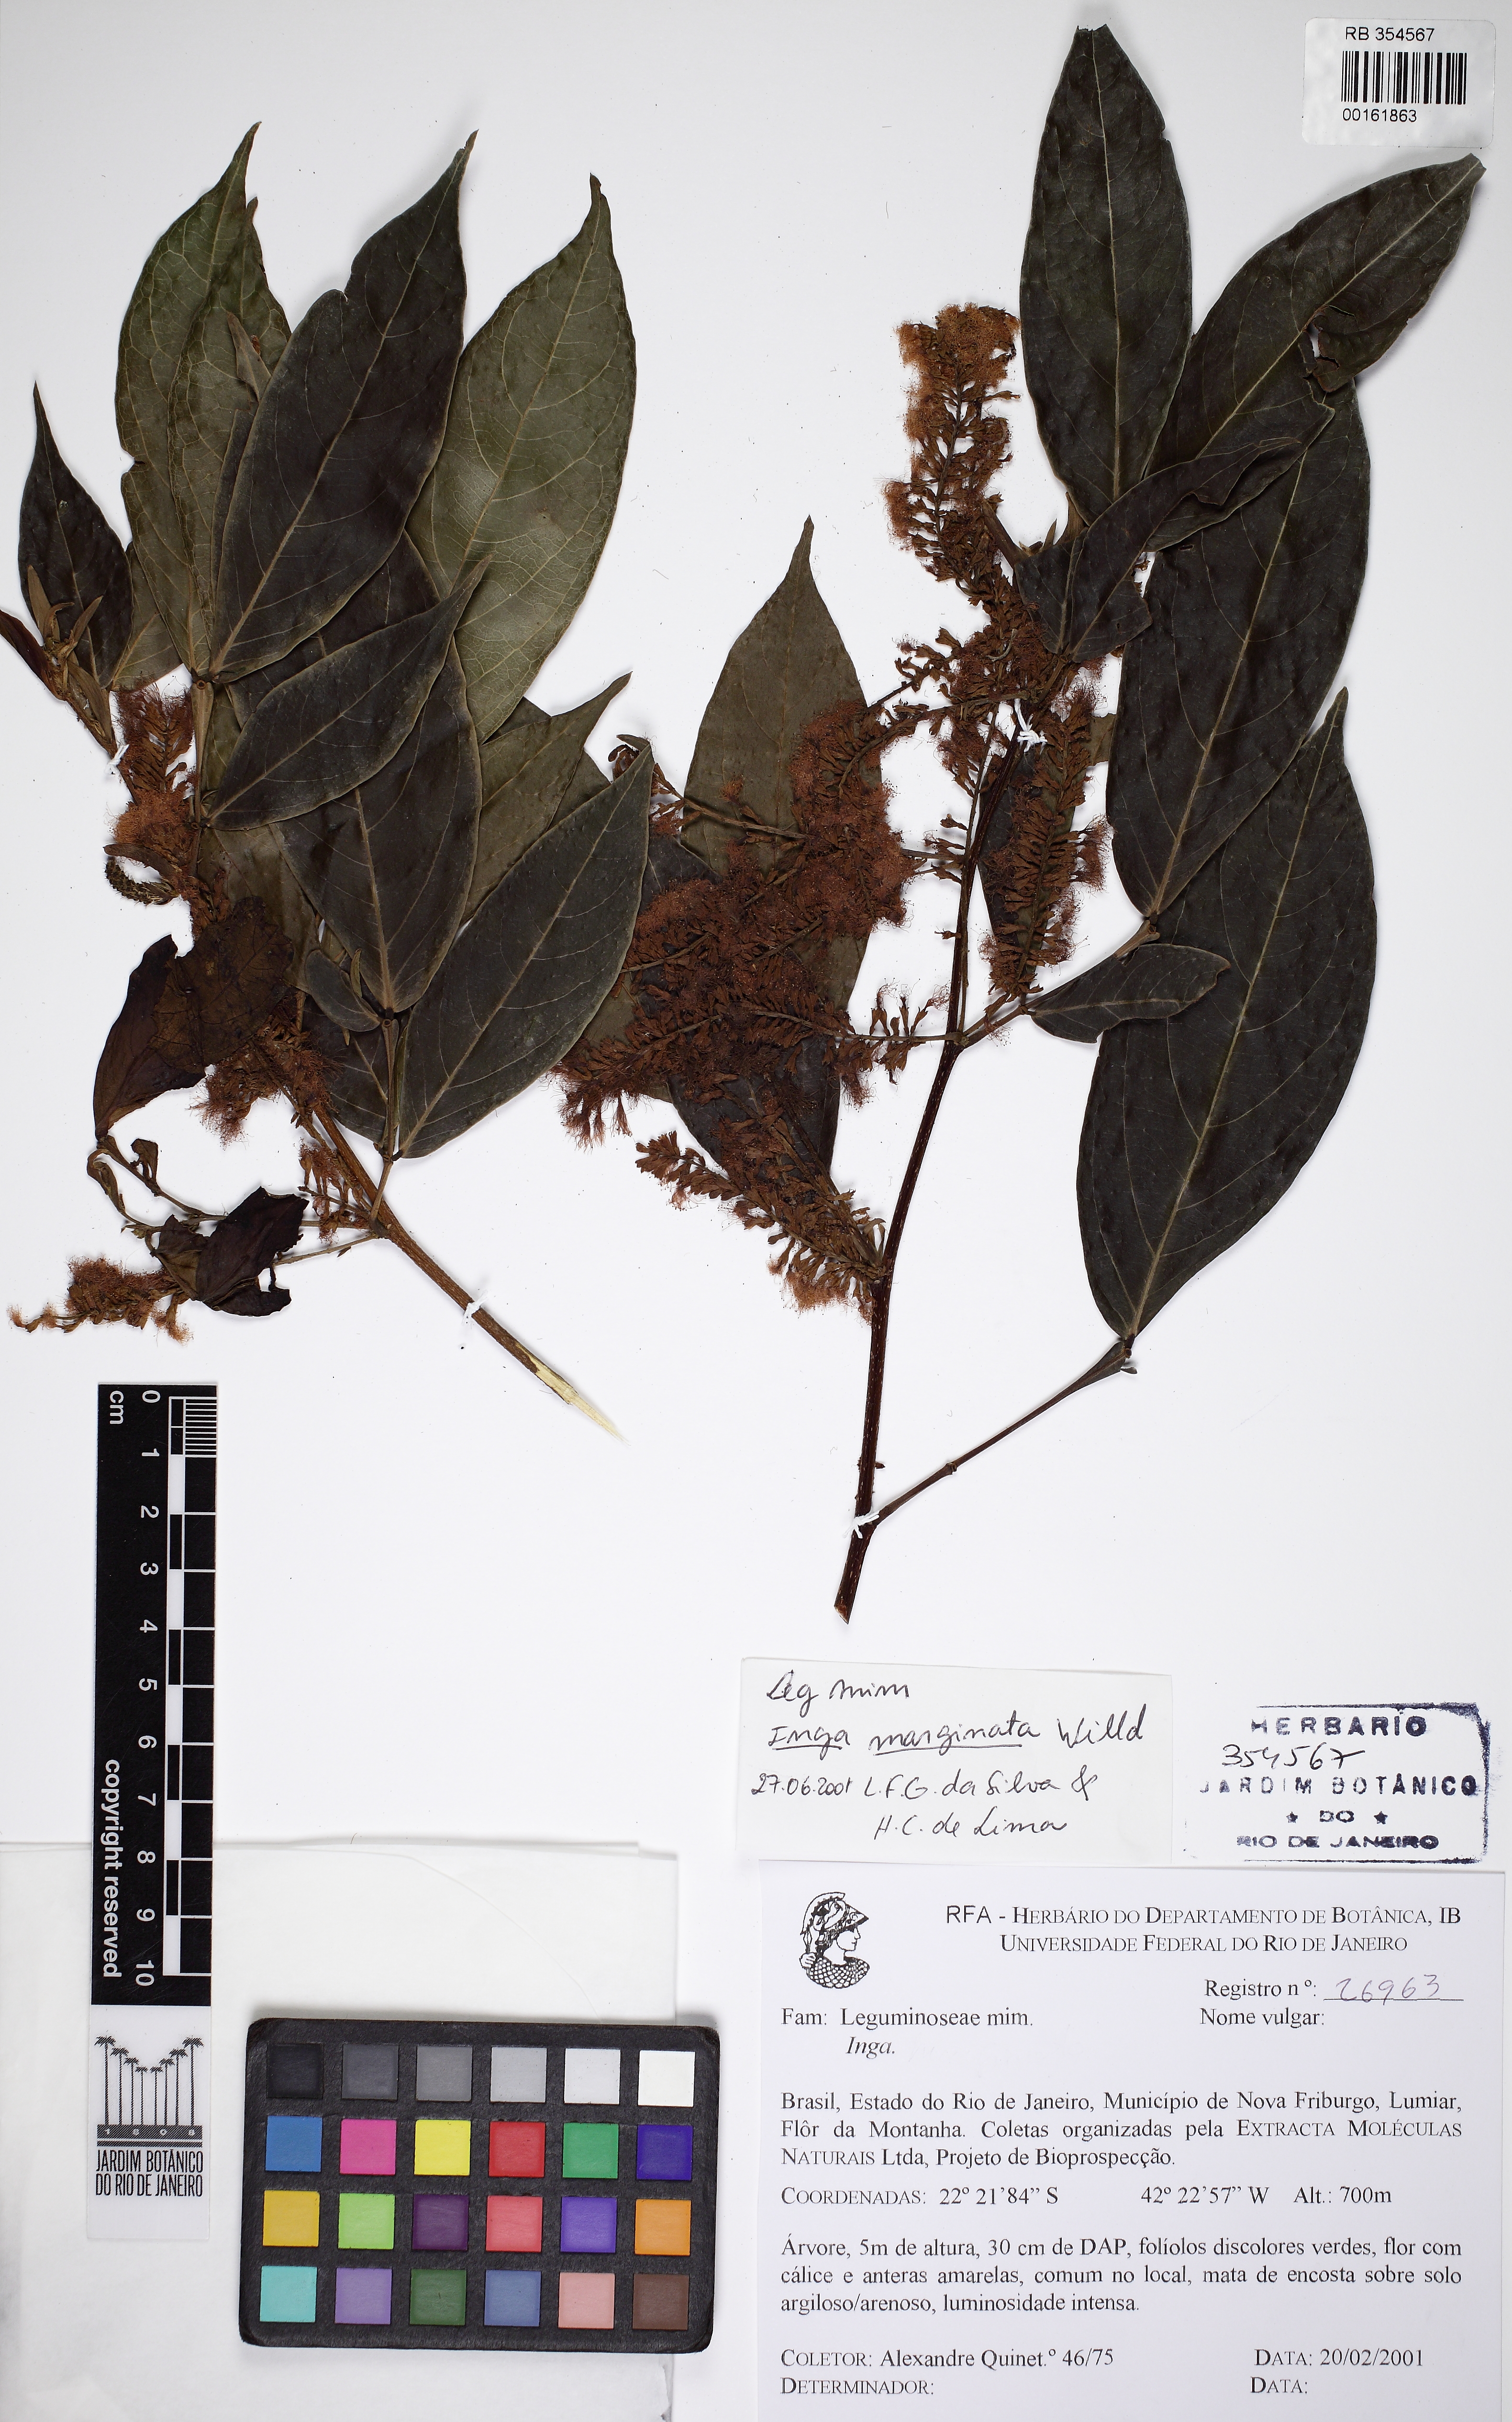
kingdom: Plantae
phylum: Tracheophyta
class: Magnoliopsida
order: Fabales
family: Fabaceae
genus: Inga
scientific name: Inga marginata
